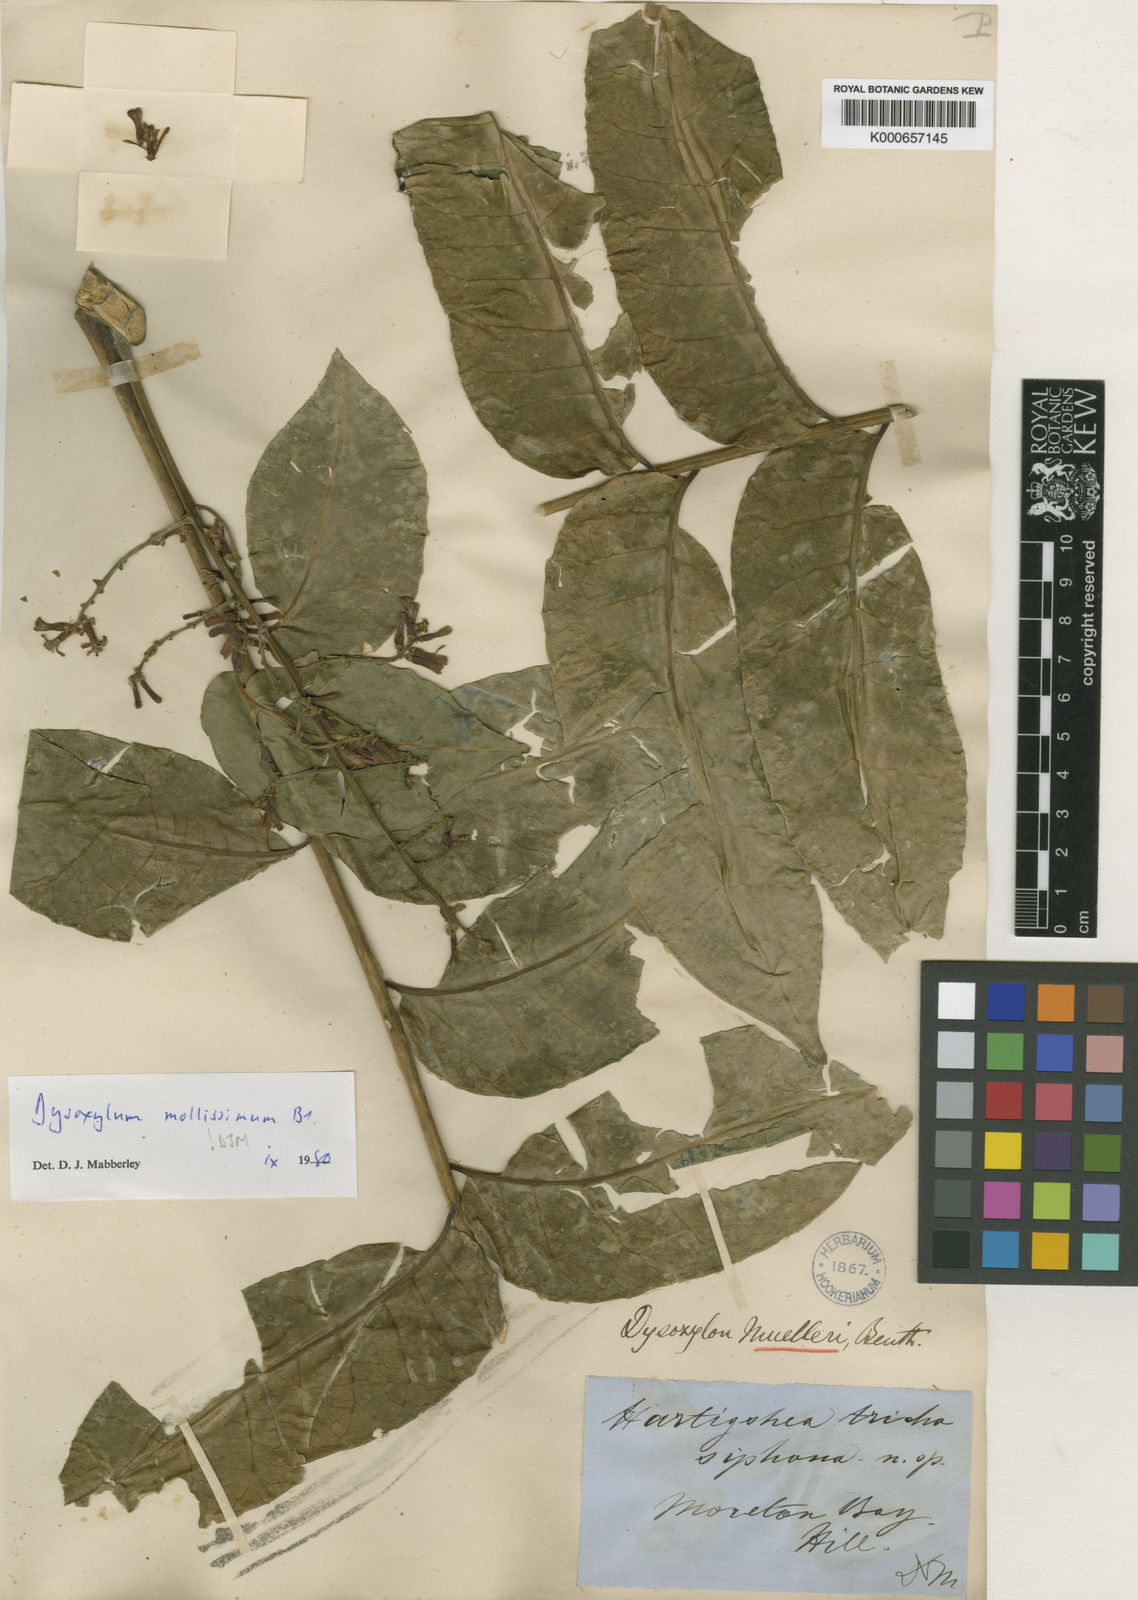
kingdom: Plantae
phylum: Tracheophyta
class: Magnoliopsida
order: Sapindales
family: Meliaceae
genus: Dysoxylum
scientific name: Dysoxylum mollissimum
